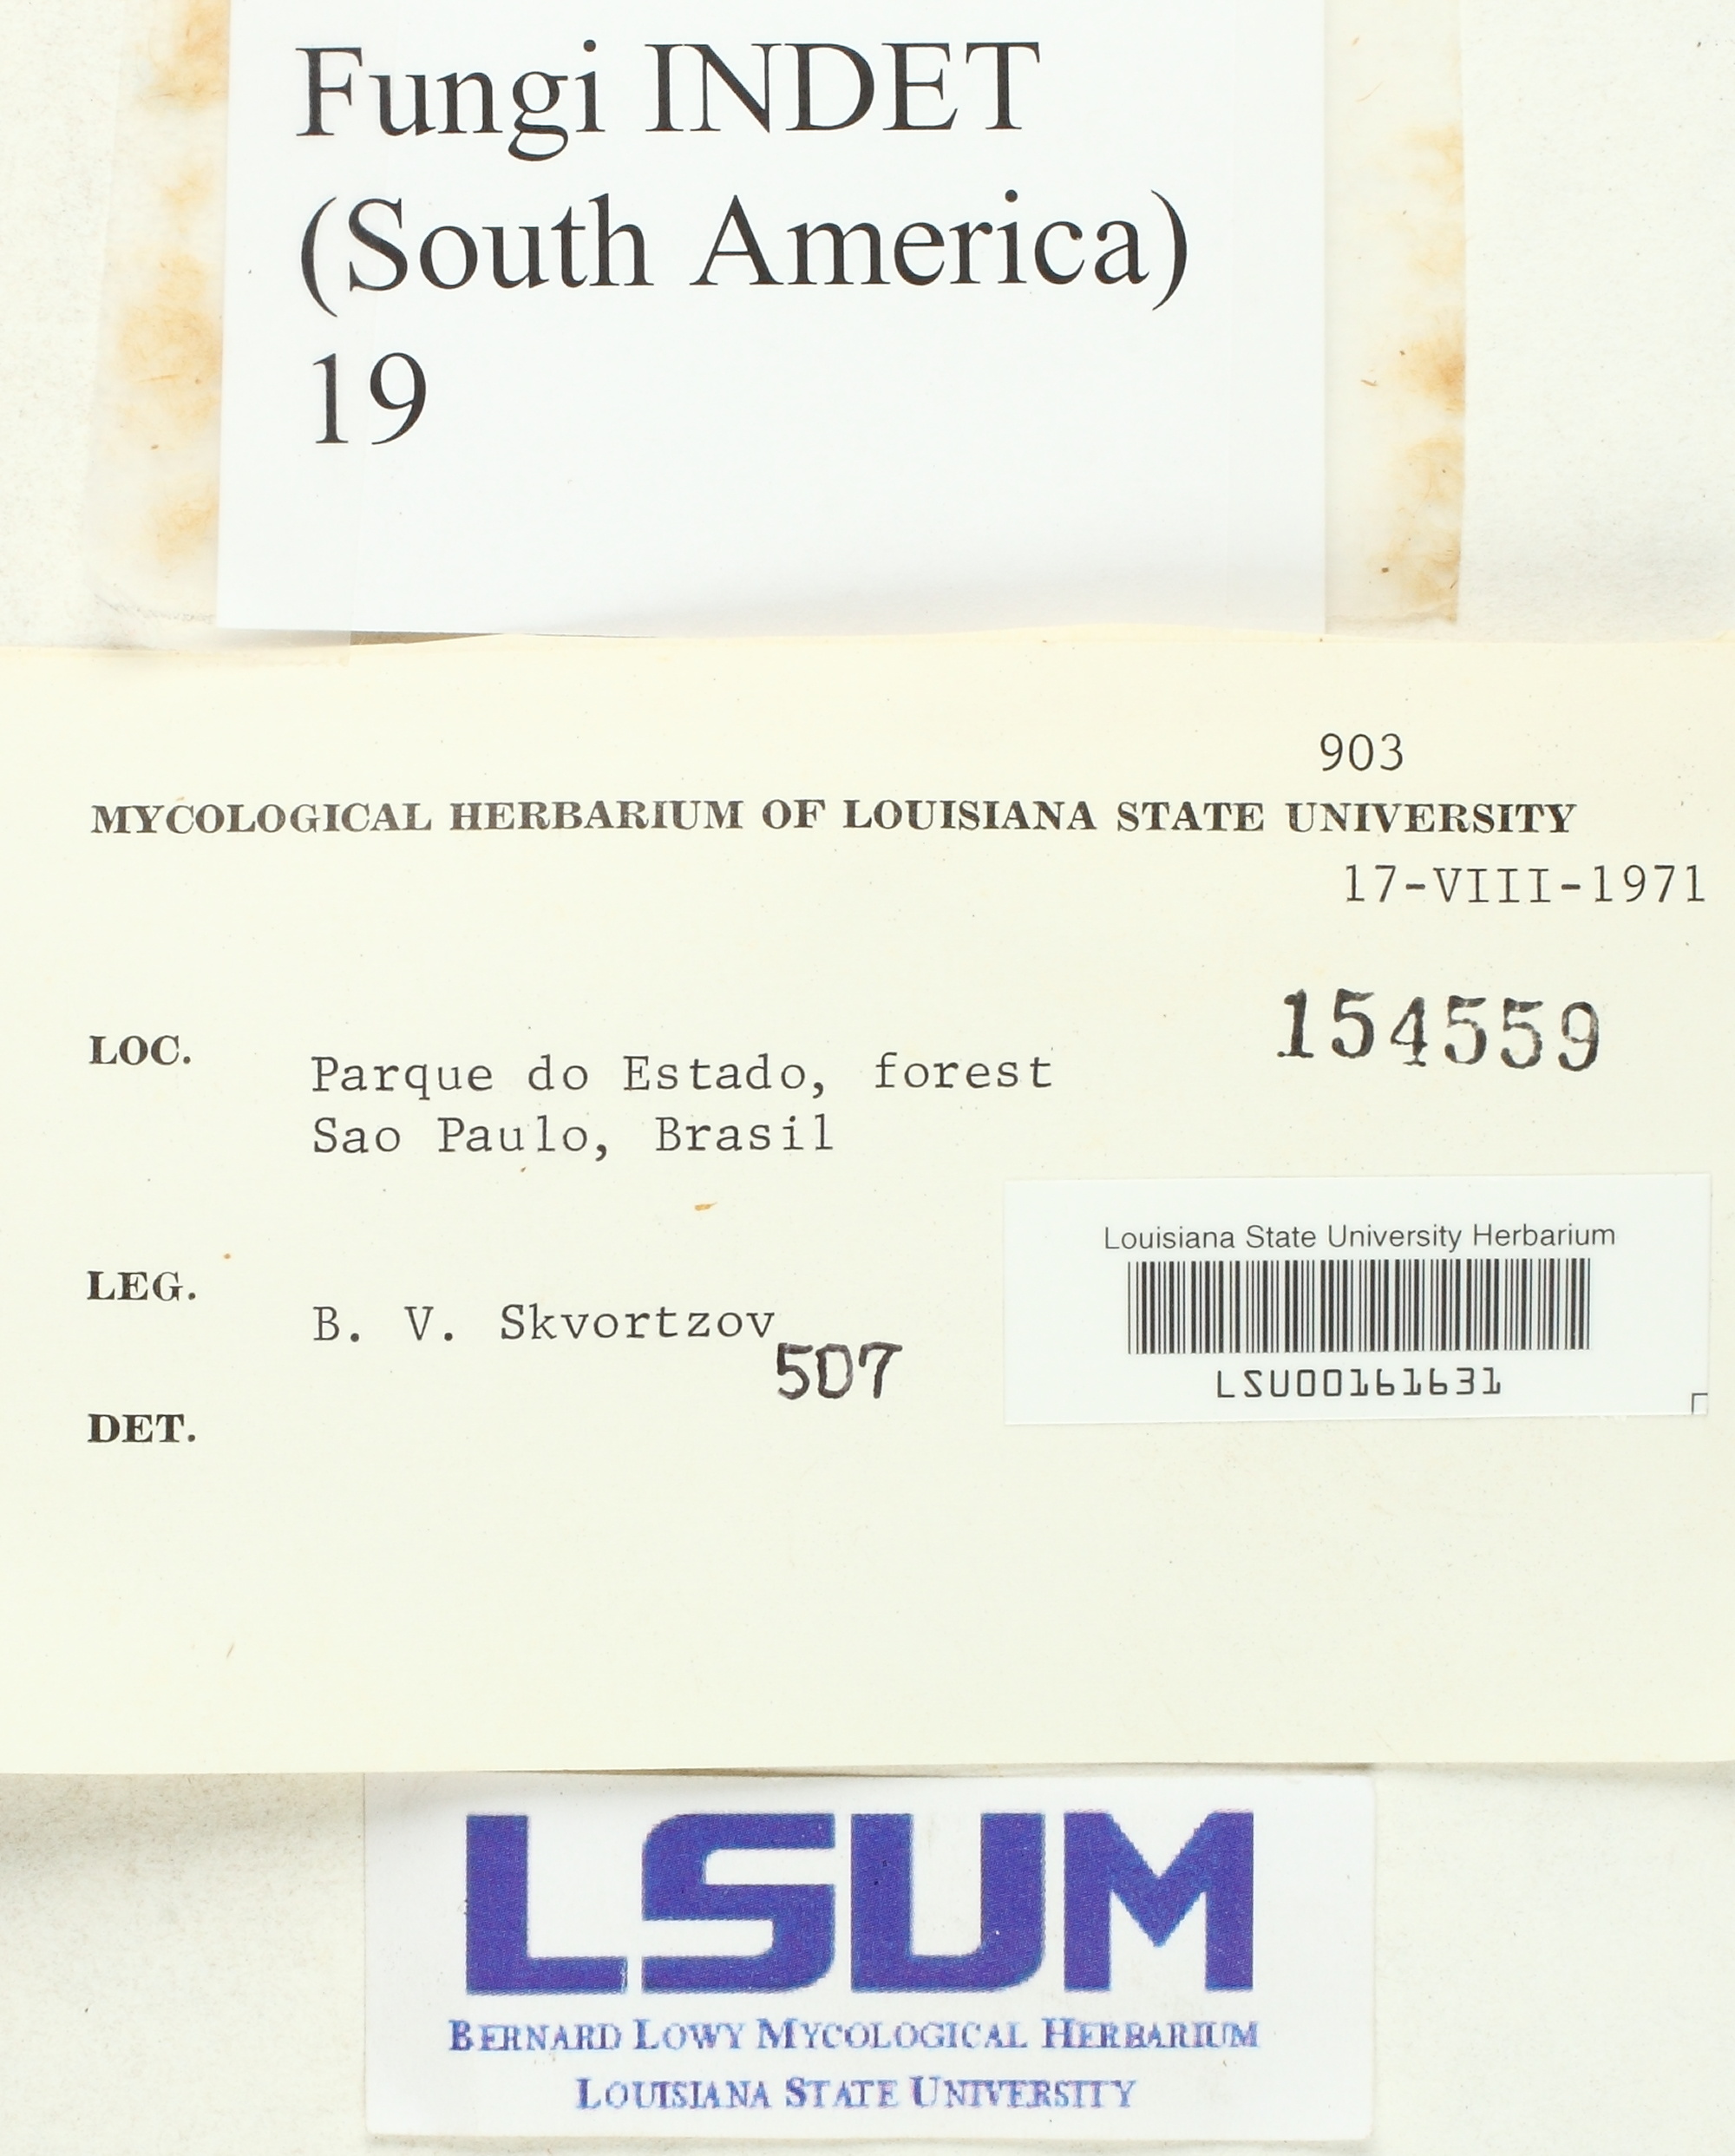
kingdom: Fungi
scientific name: Fungi
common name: Fungi
